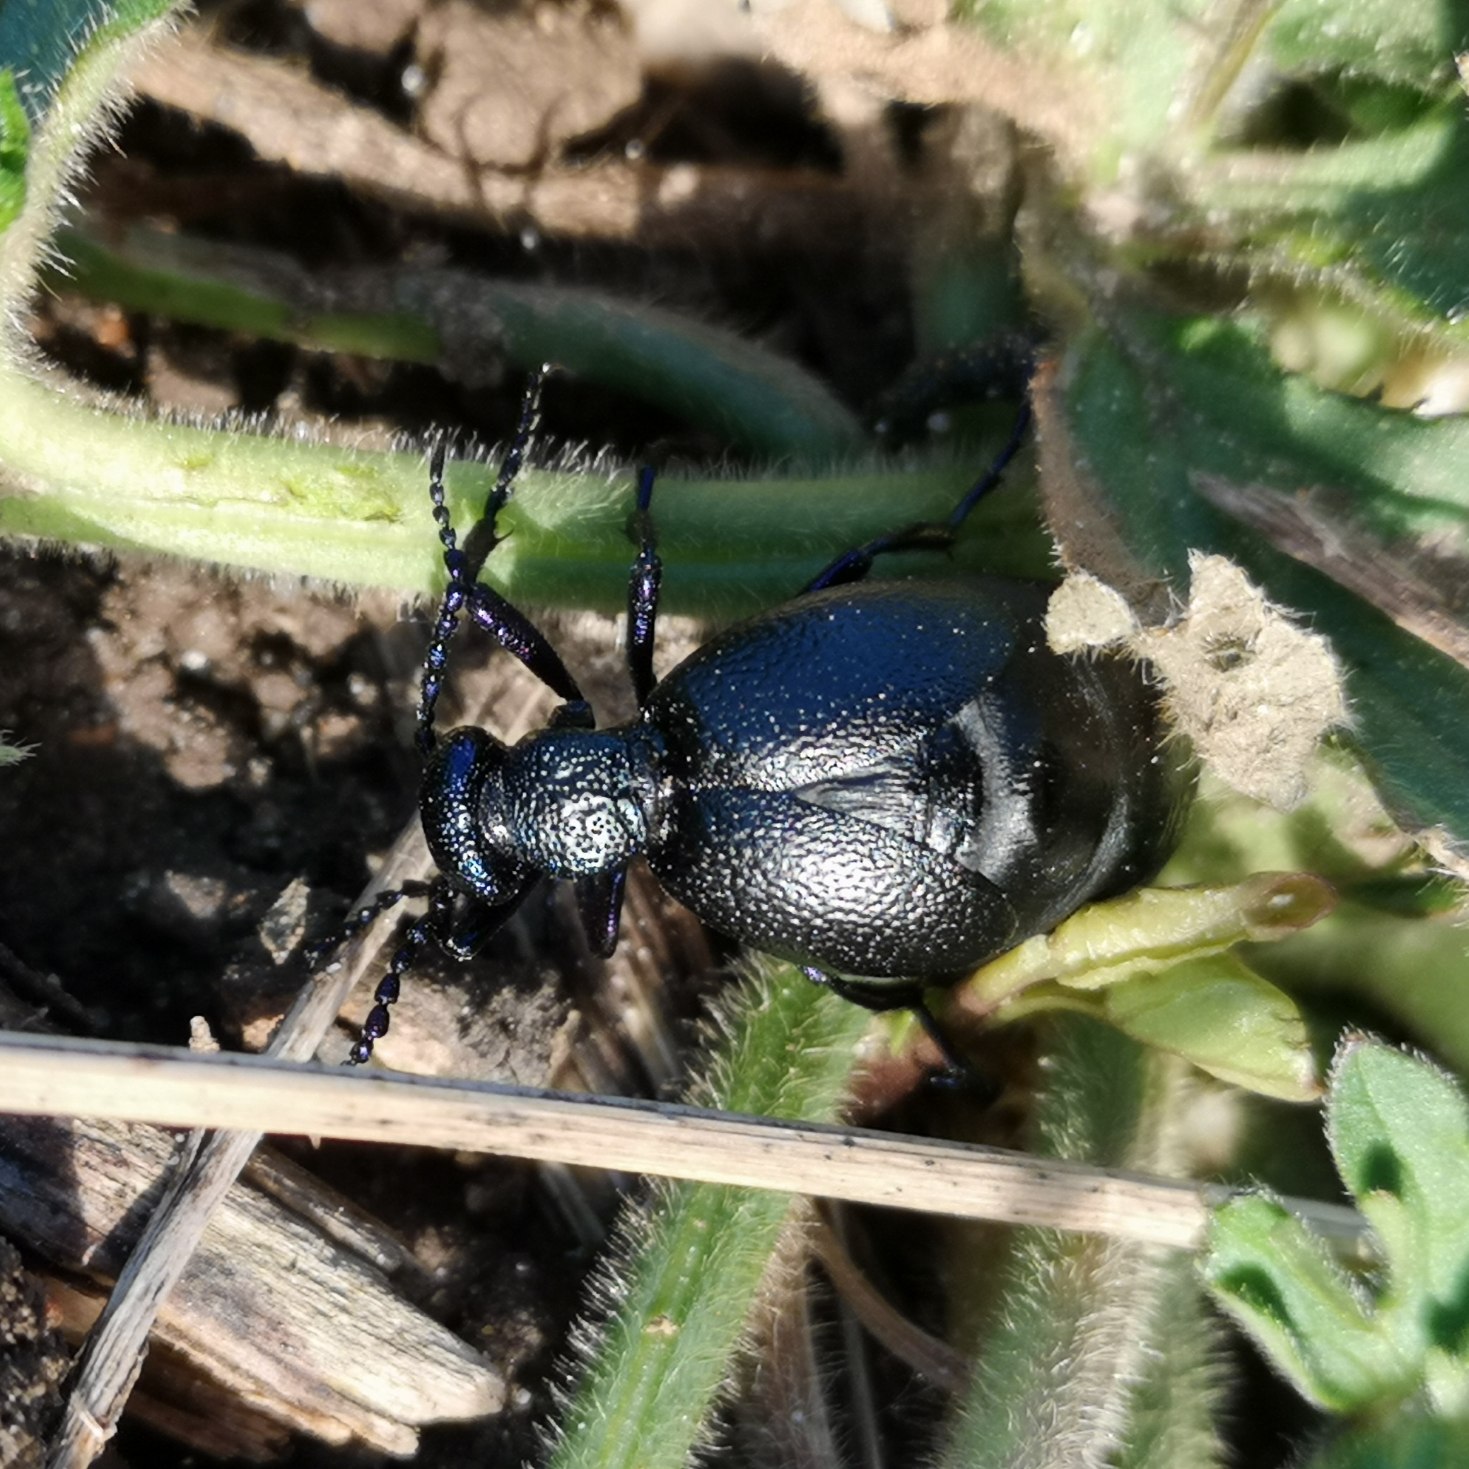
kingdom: Animalia
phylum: Arthropoda
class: Insecta
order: Coleoptera
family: Meloidae
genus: Meloe
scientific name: Meloe proscarabaeus
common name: Sort oliebille
